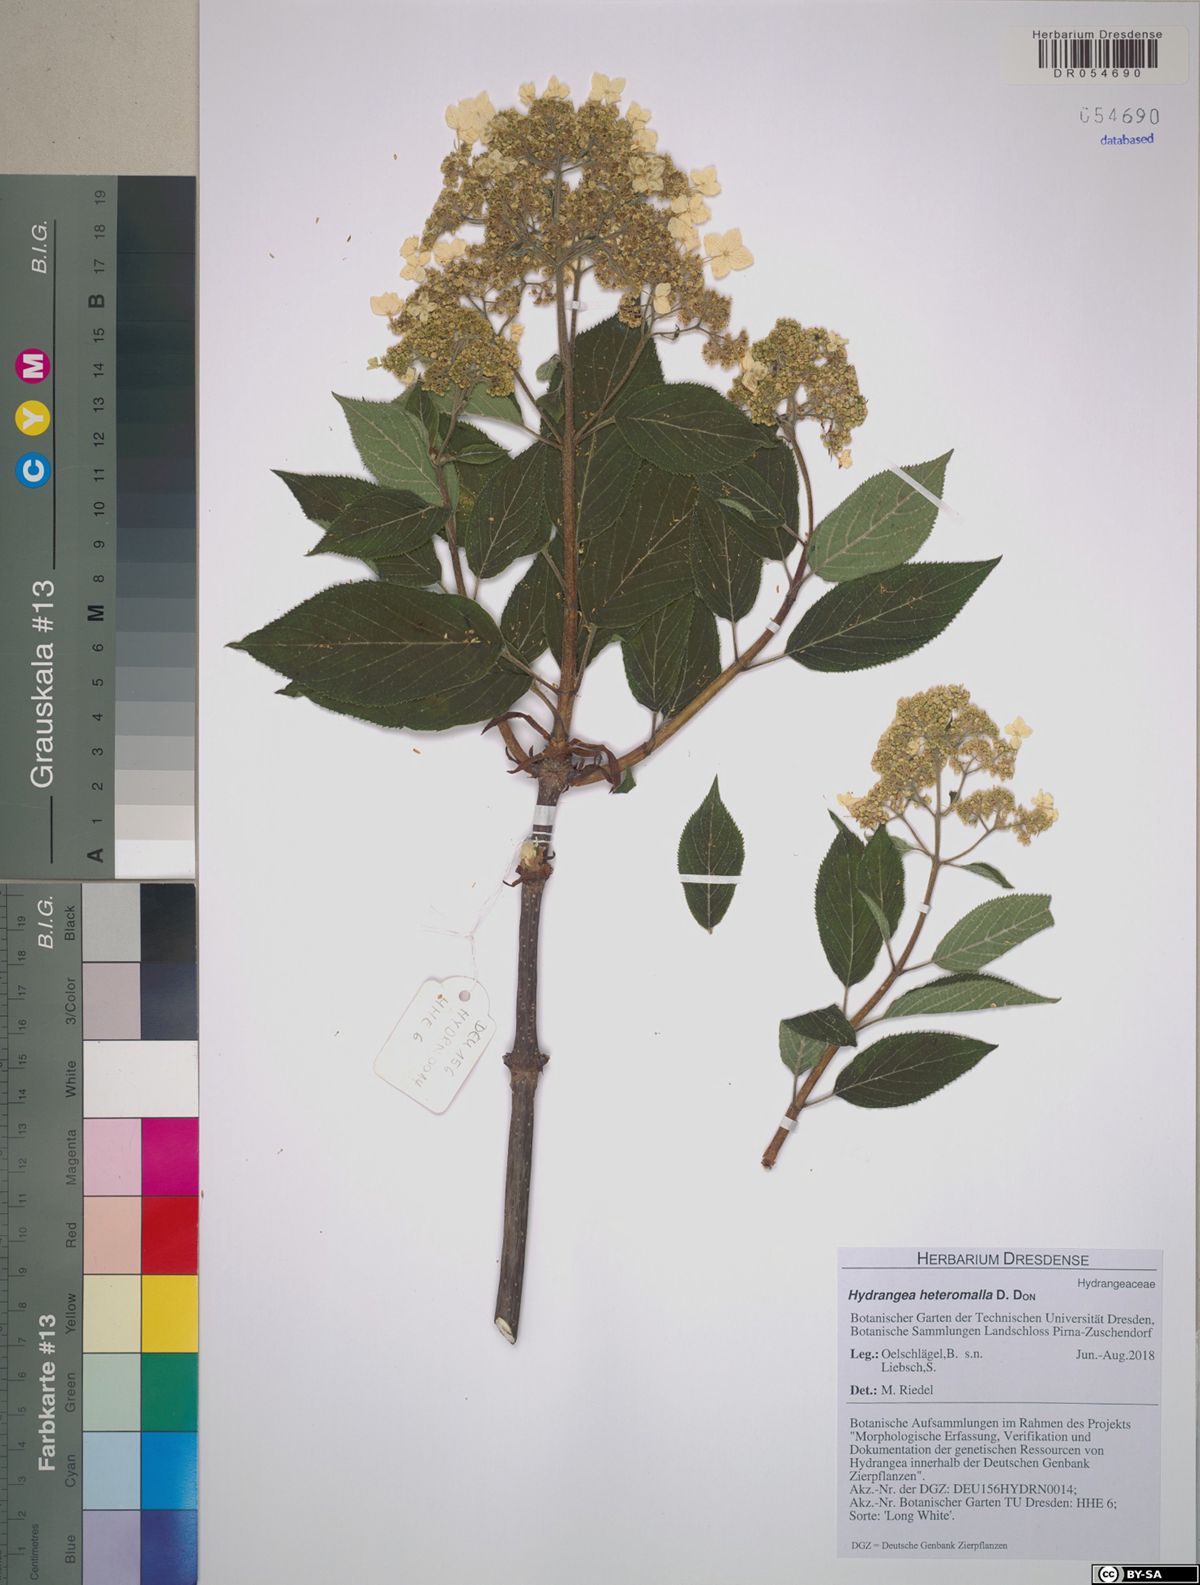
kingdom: Plantae
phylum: Tracheophyta
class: Magnoliopsida
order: Cornales
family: Hydrangeaceae
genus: Hydrangea
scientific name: Hydrangea heteromalla
